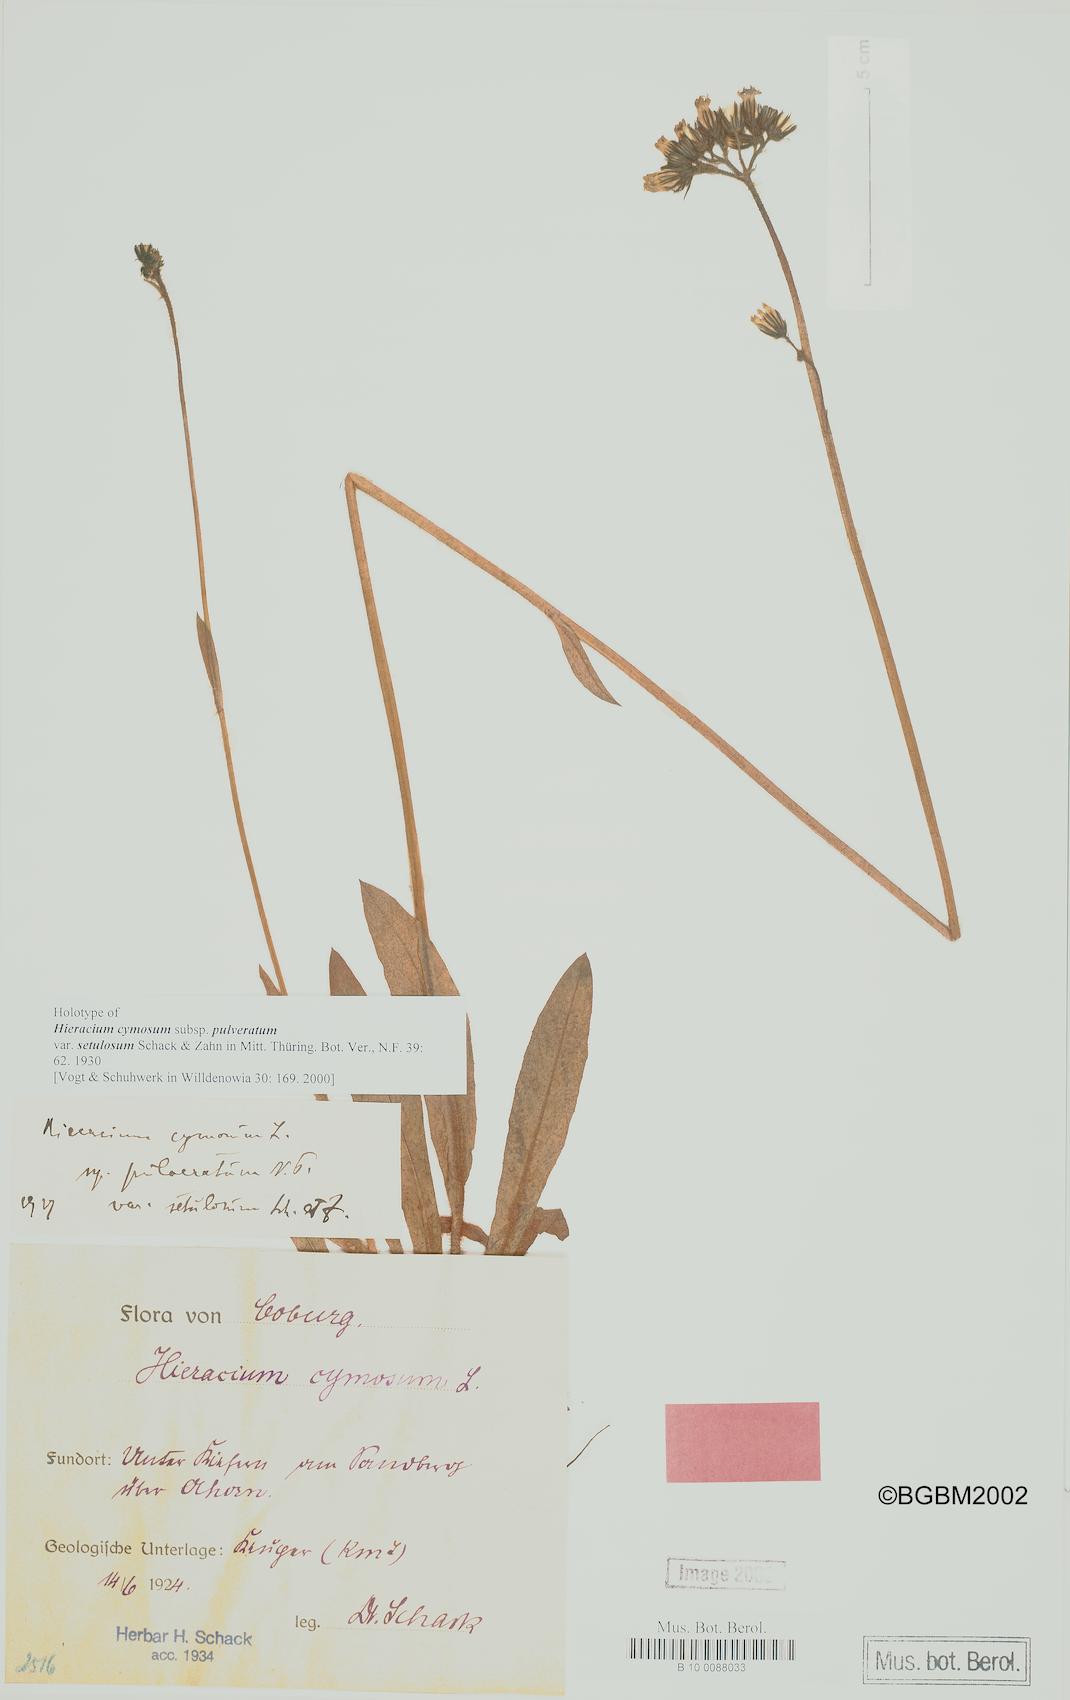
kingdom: Plantae
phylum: Tracheophyta
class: Magnoliopsida
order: Asterales
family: Asteraceae
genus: Hieracium
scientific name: Hieracium cymosum
